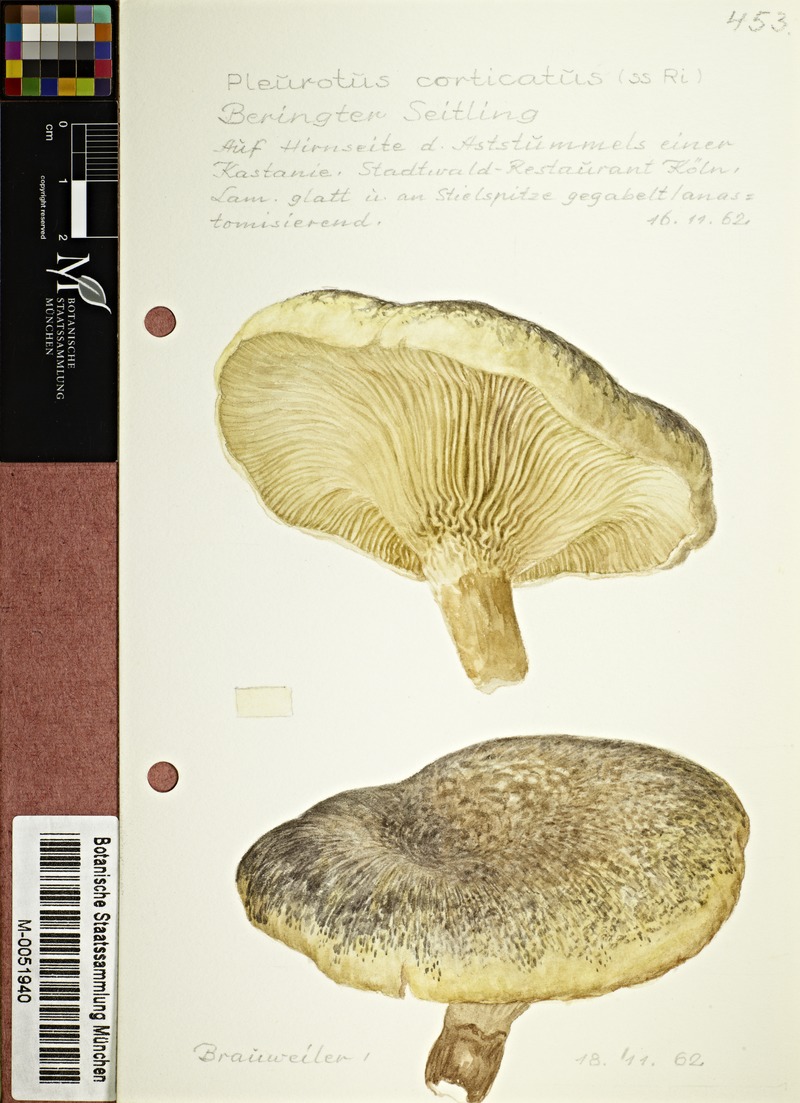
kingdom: Fungi
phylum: Basidiomycota
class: Agaricomycetes
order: Agaricales
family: Pleurotaceae
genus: Pleurotus
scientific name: Pleurotus dryinus
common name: Veiled oyster
